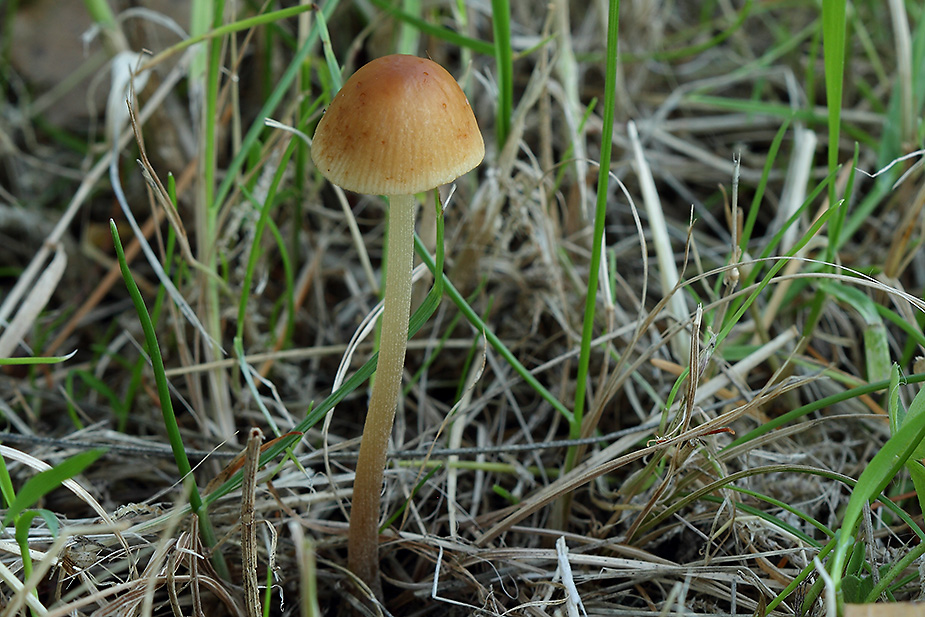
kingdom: Fungi
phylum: Basidiomycota
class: Agaricomycetes
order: Agaricales
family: Bolbitiaceae
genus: Conocybe
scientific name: Conocybe
